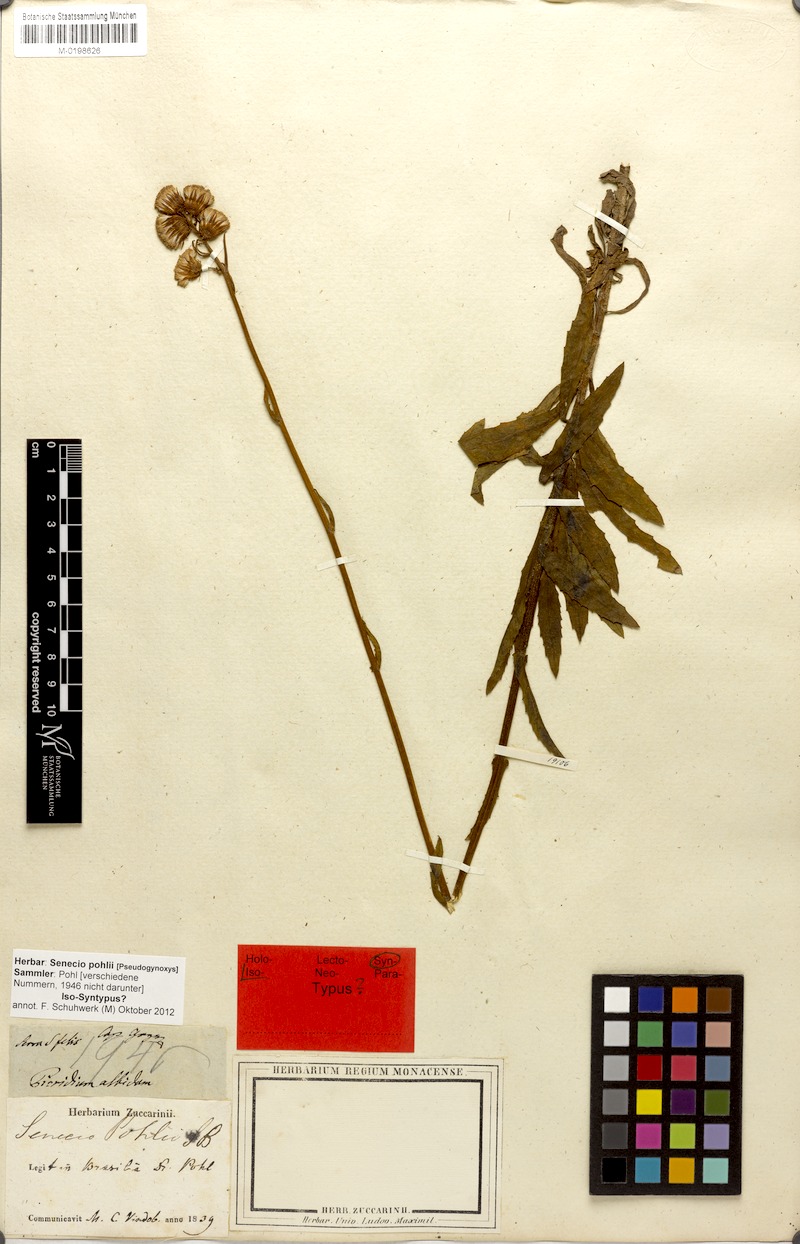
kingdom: Plantae
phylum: Tracheophyta
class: Magnoliopsida
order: Asterales
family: Asteraceae
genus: Pseudogynoxys
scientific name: Pseudogynoxys pohlii
